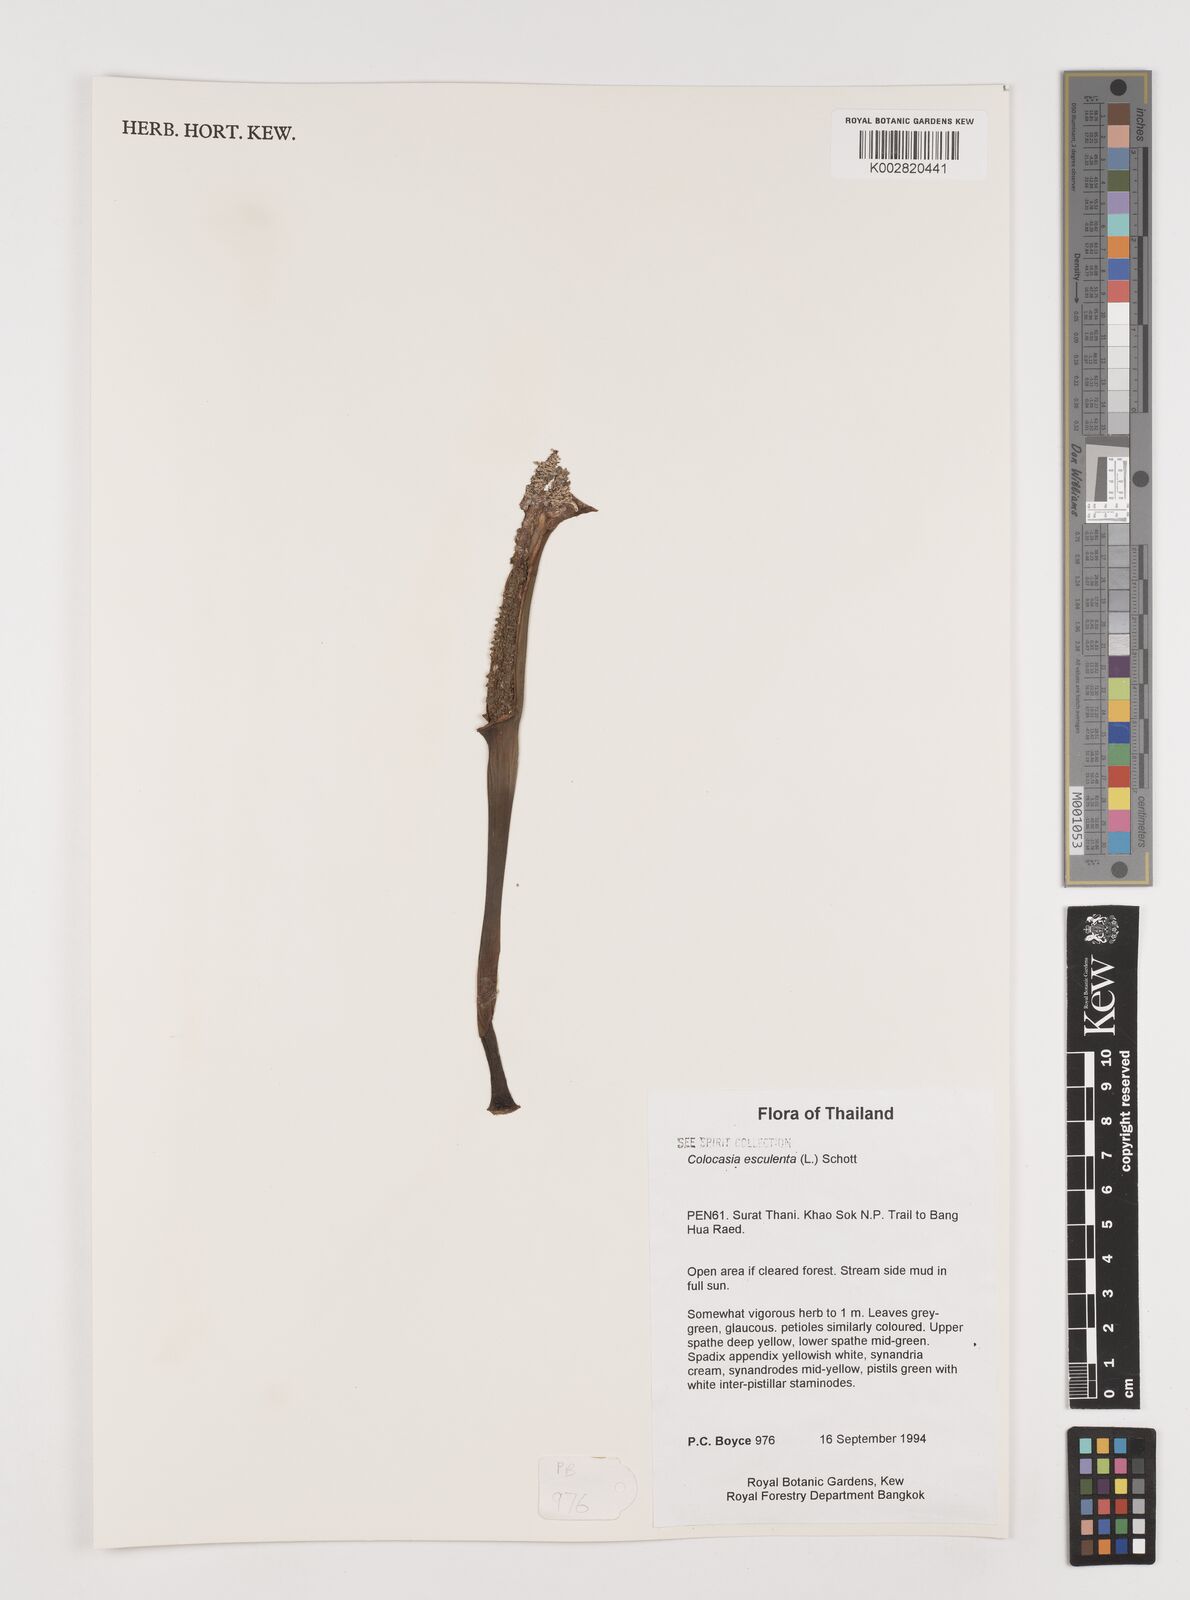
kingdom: Plantae
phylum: Tracheophyta
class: Liliopsida
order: Alismatales
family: Araceae
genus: Colocasia
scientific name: Colocasia esculenta
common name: Taro
